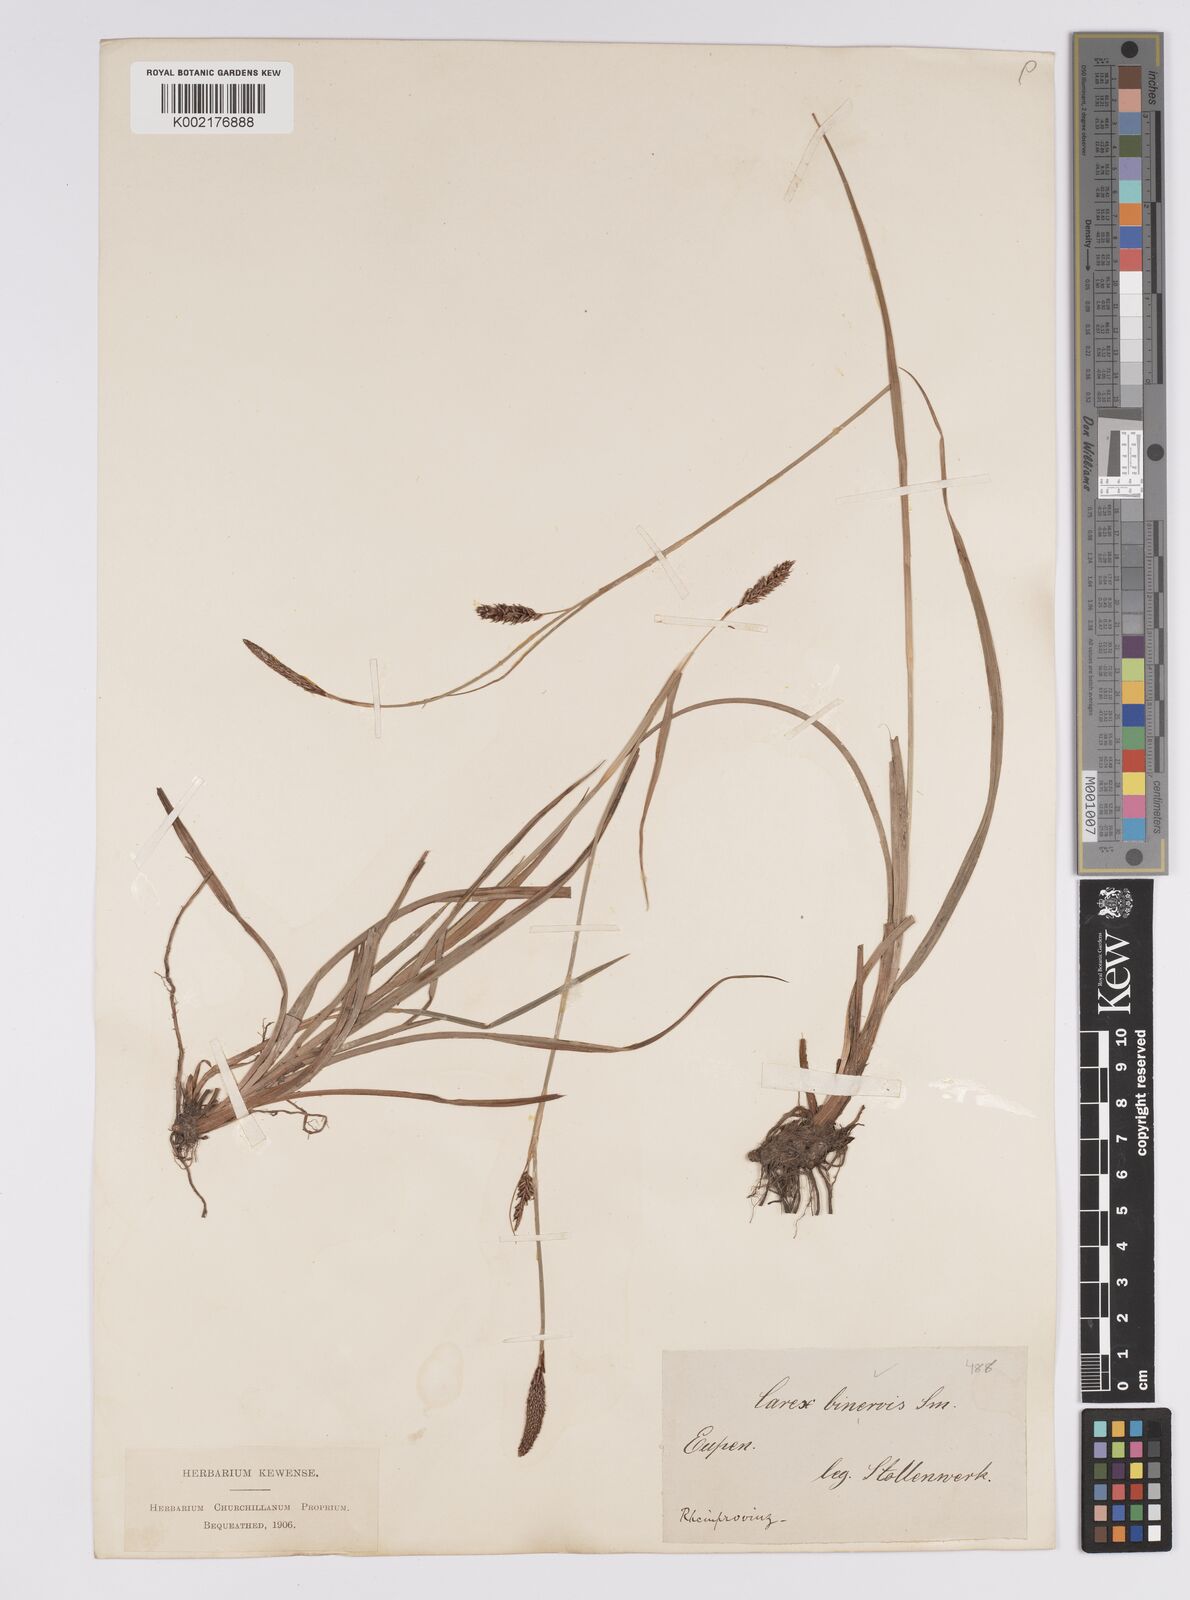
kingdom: Plantae
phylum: Tracheophyta
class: Liliopsida
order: Poales
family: Cyperaceae
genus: Carex
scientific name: Carex binervis
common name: Green-ribbed sedge
